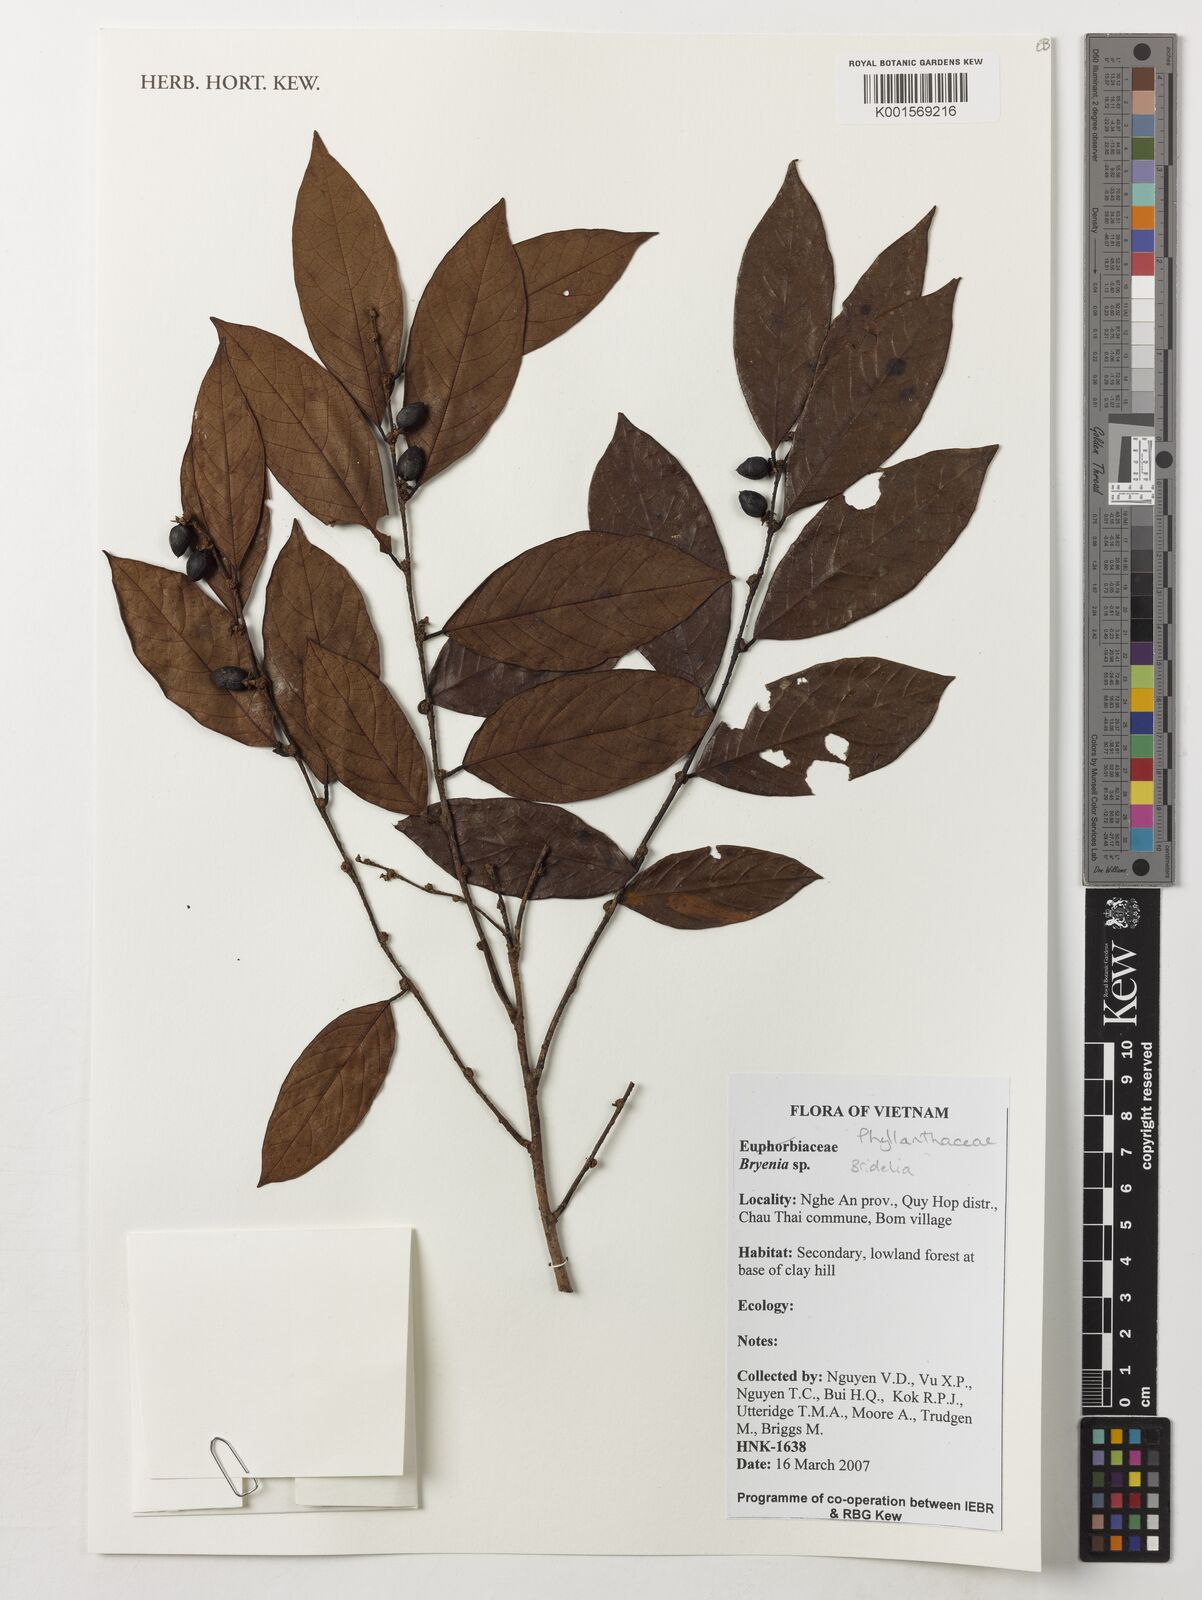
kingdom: Plantae
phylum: Tracheophyta
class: Magnoliopsida
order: Malpighiales
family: Phyllanthaceae
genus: Bridelia
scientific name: Bridelia
